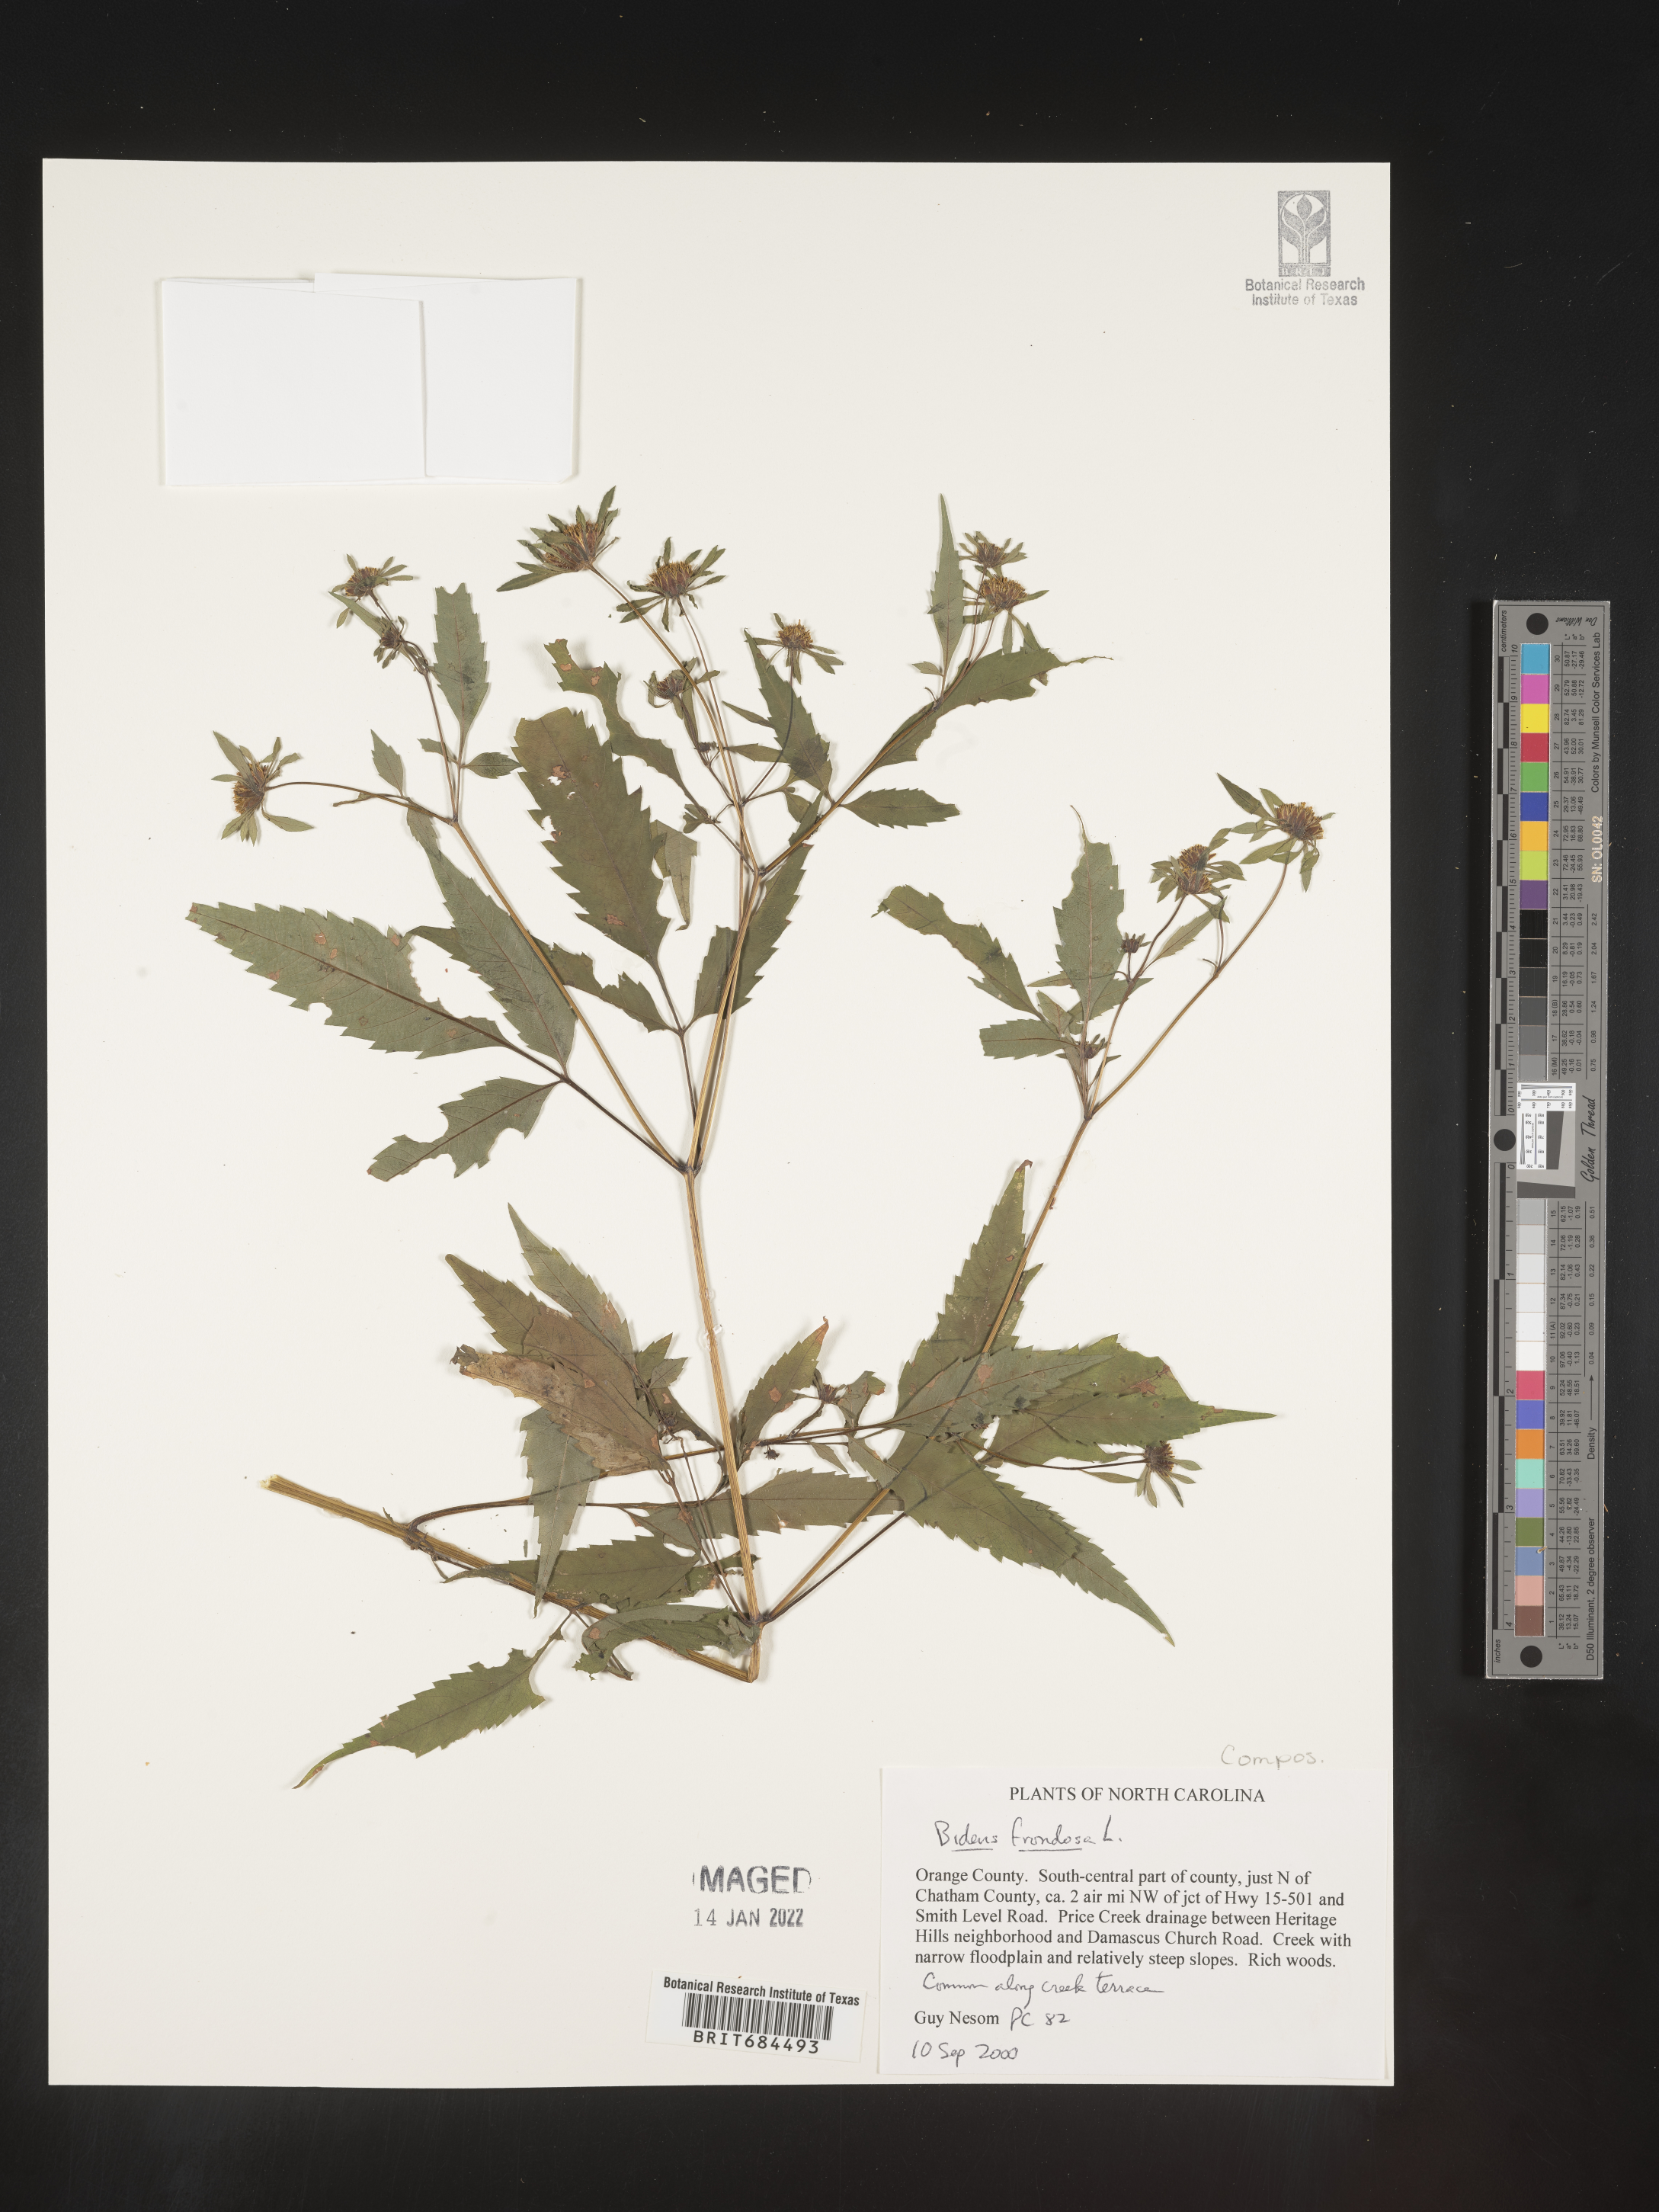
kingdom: Plantae
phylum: Tracheophyta
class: Magnoliopsida
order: Asterales
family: Asteraceae
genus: Bidens
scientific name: Bidens frondosa
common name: Beggarticks
